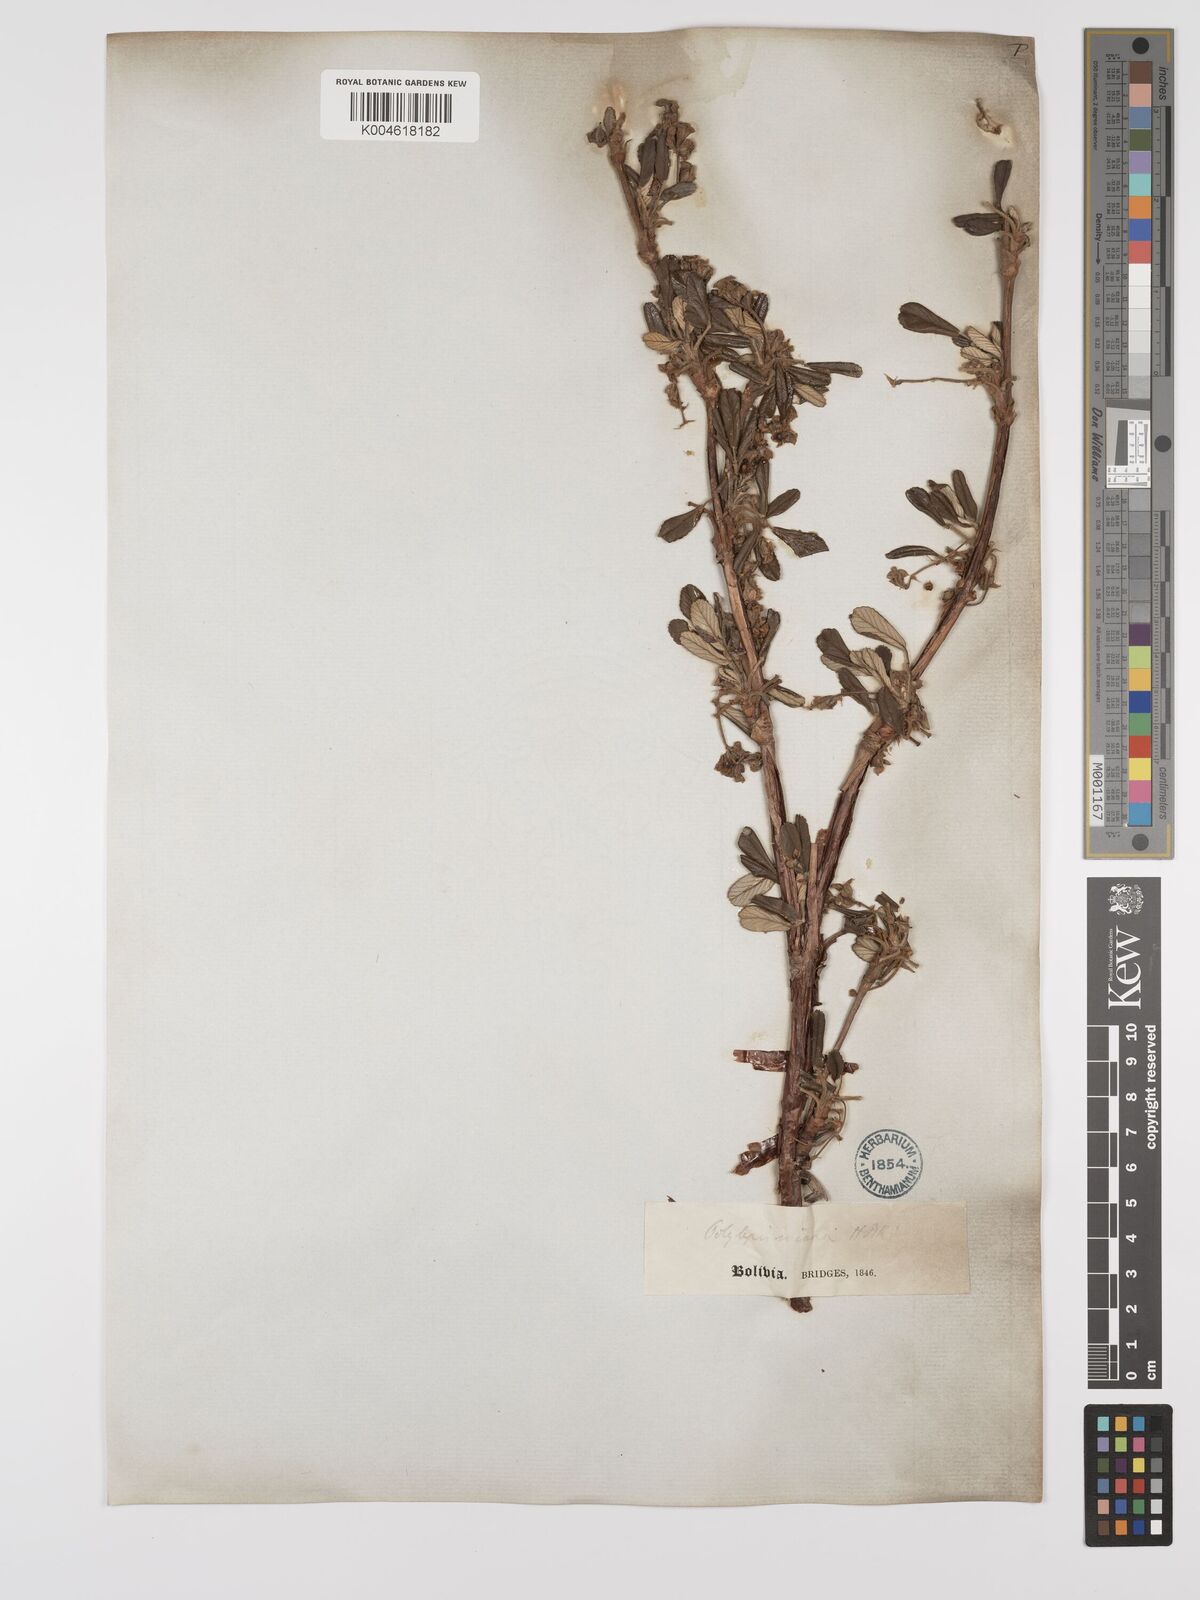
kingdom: Plantae
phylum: Tracheophyta
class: Magnoliopsida
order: Rosales
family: Rosaceae
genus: Polylepis
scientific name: Polylepis incana
